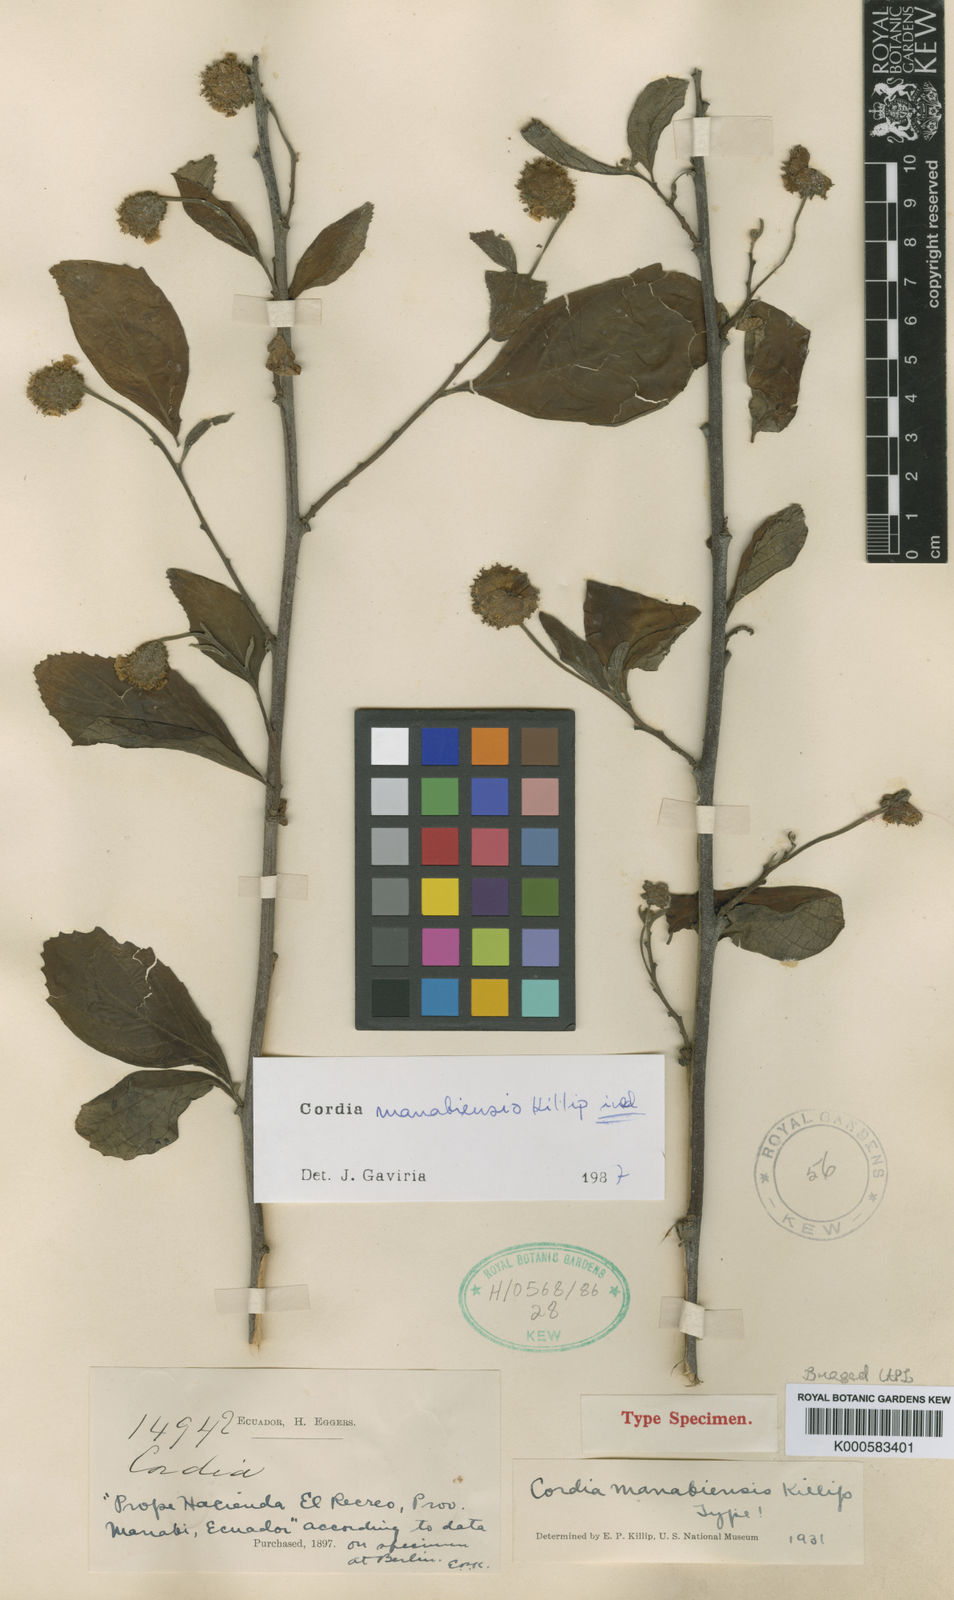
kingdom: Plantae
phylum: Tracheophyta
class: Magnoliopsida
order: Boraginales
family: Cordiaceae
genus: Cordia
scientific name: Cordia
